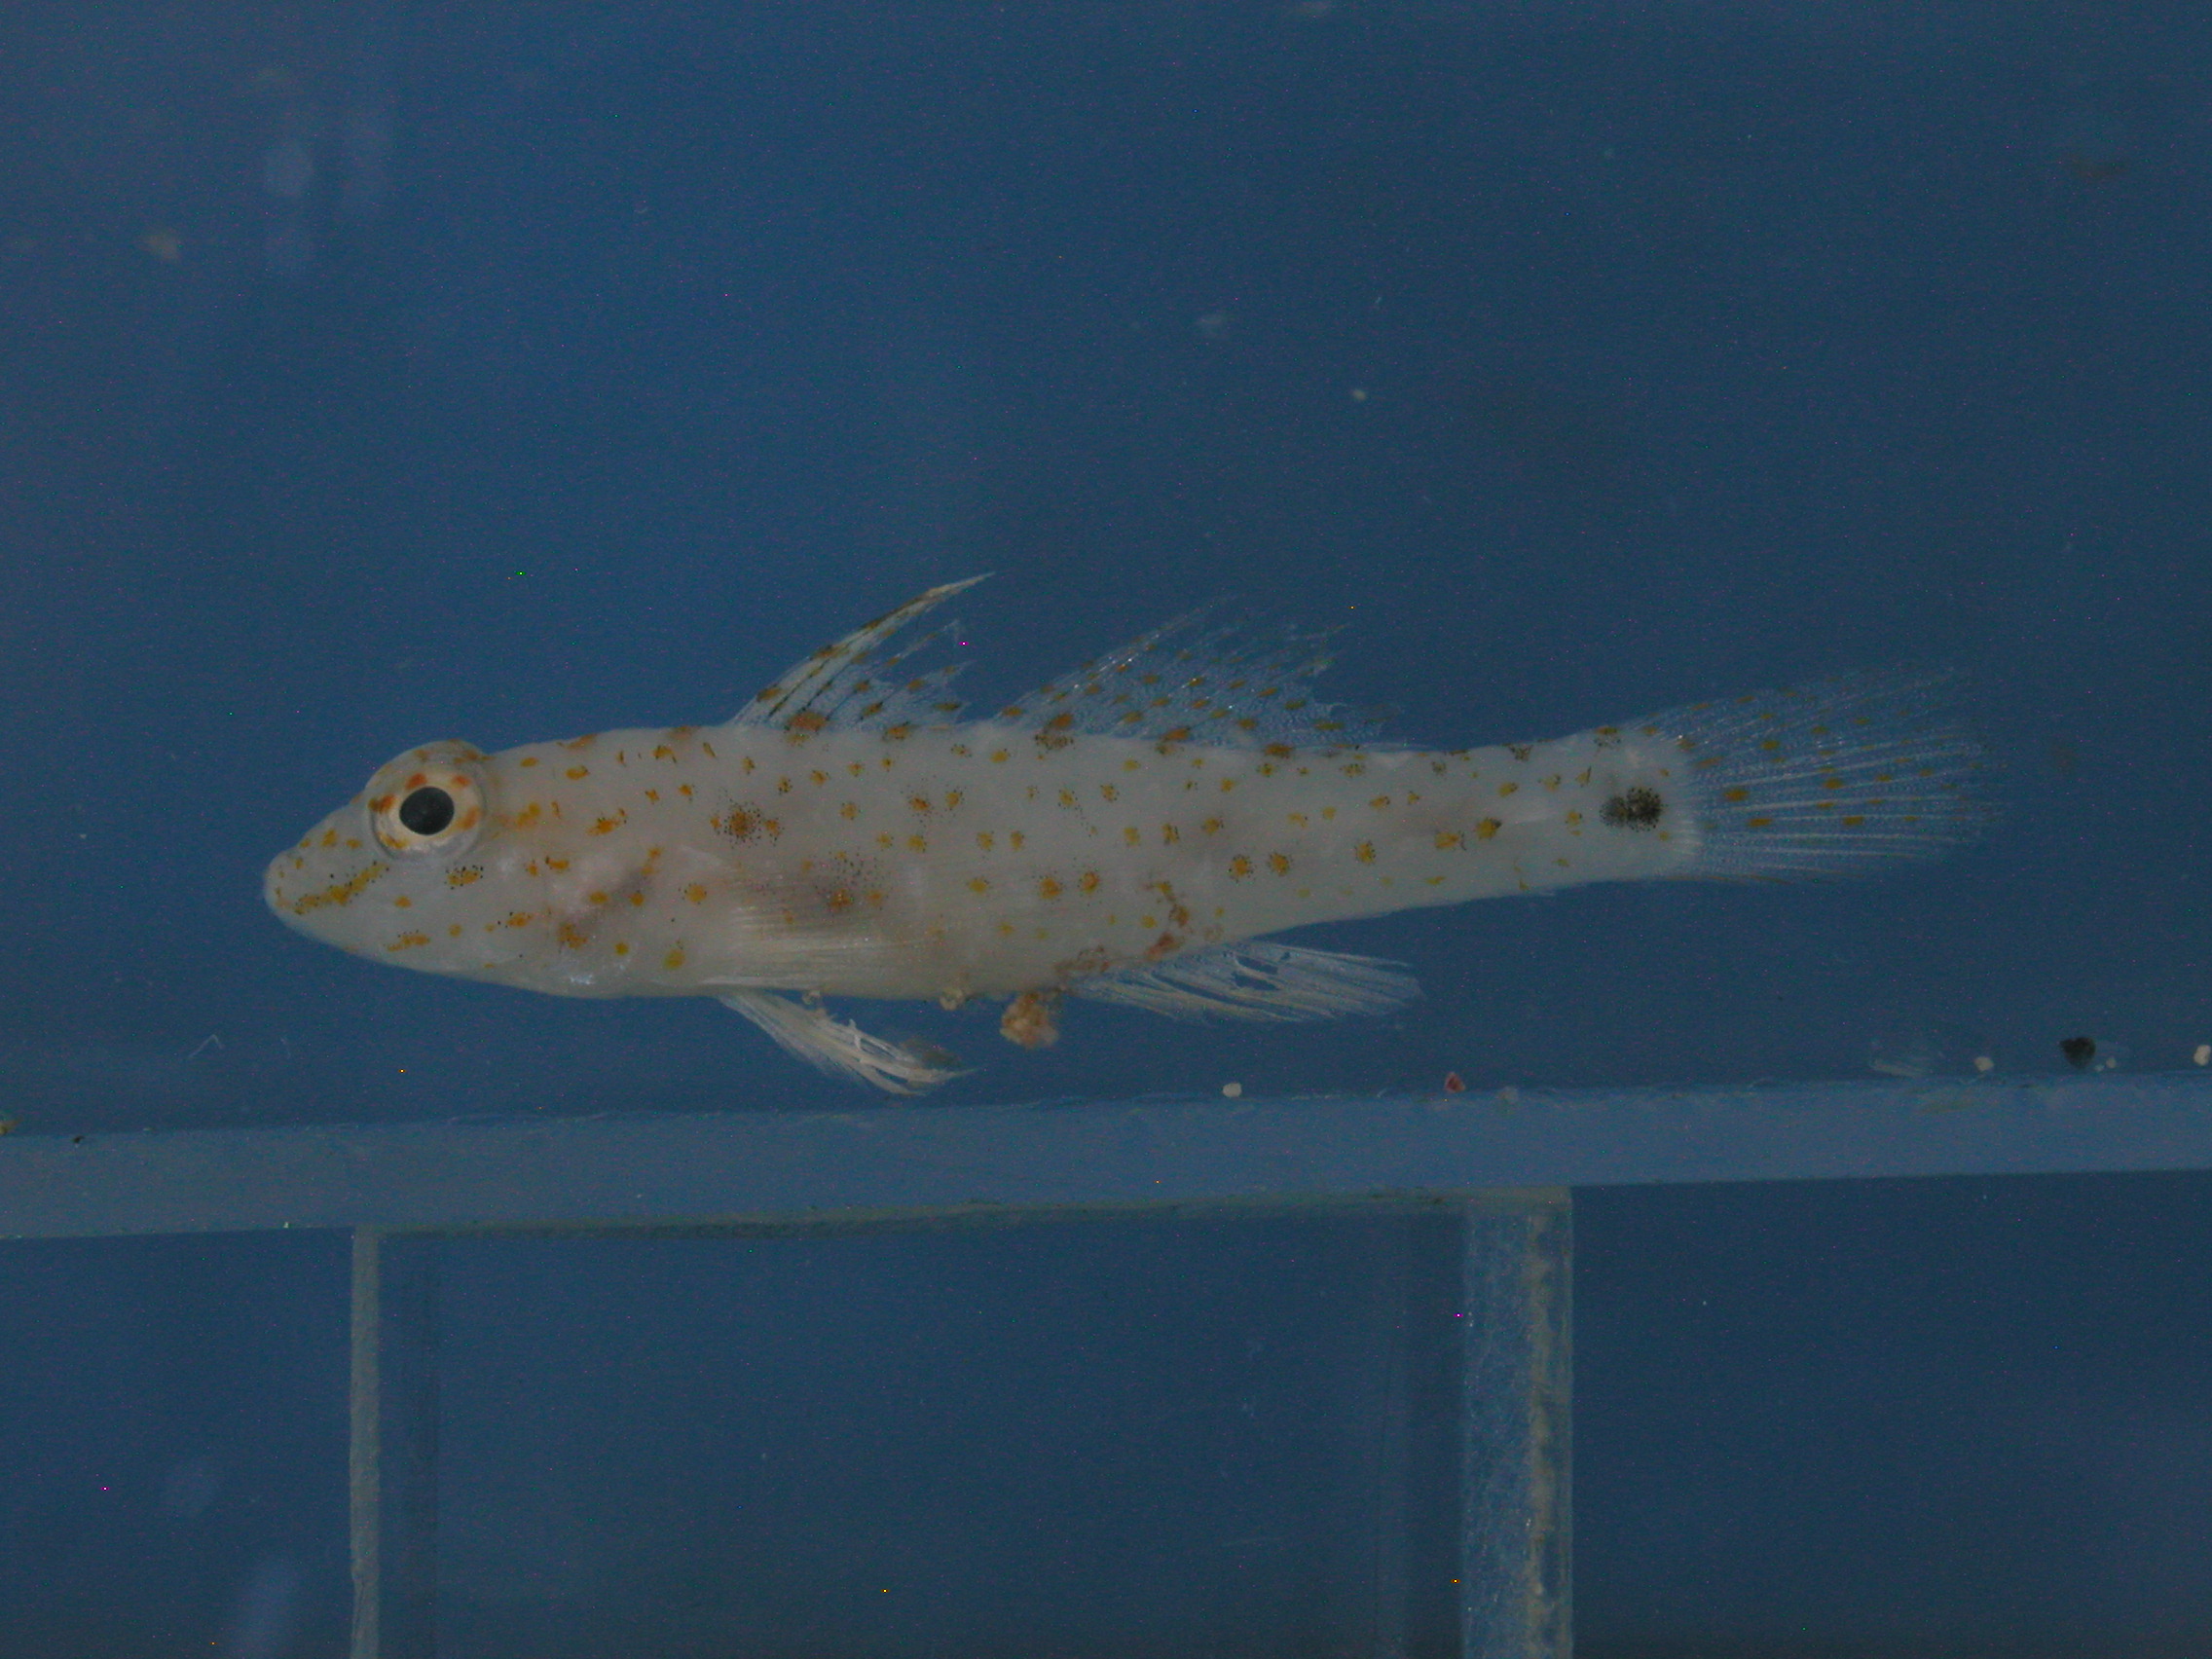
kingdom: Animalia
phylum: Chordata
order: Perciformes
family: Gobiidae
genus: Fusigobius
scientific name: Fusigobius pallidus
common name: Pale sandgoby
